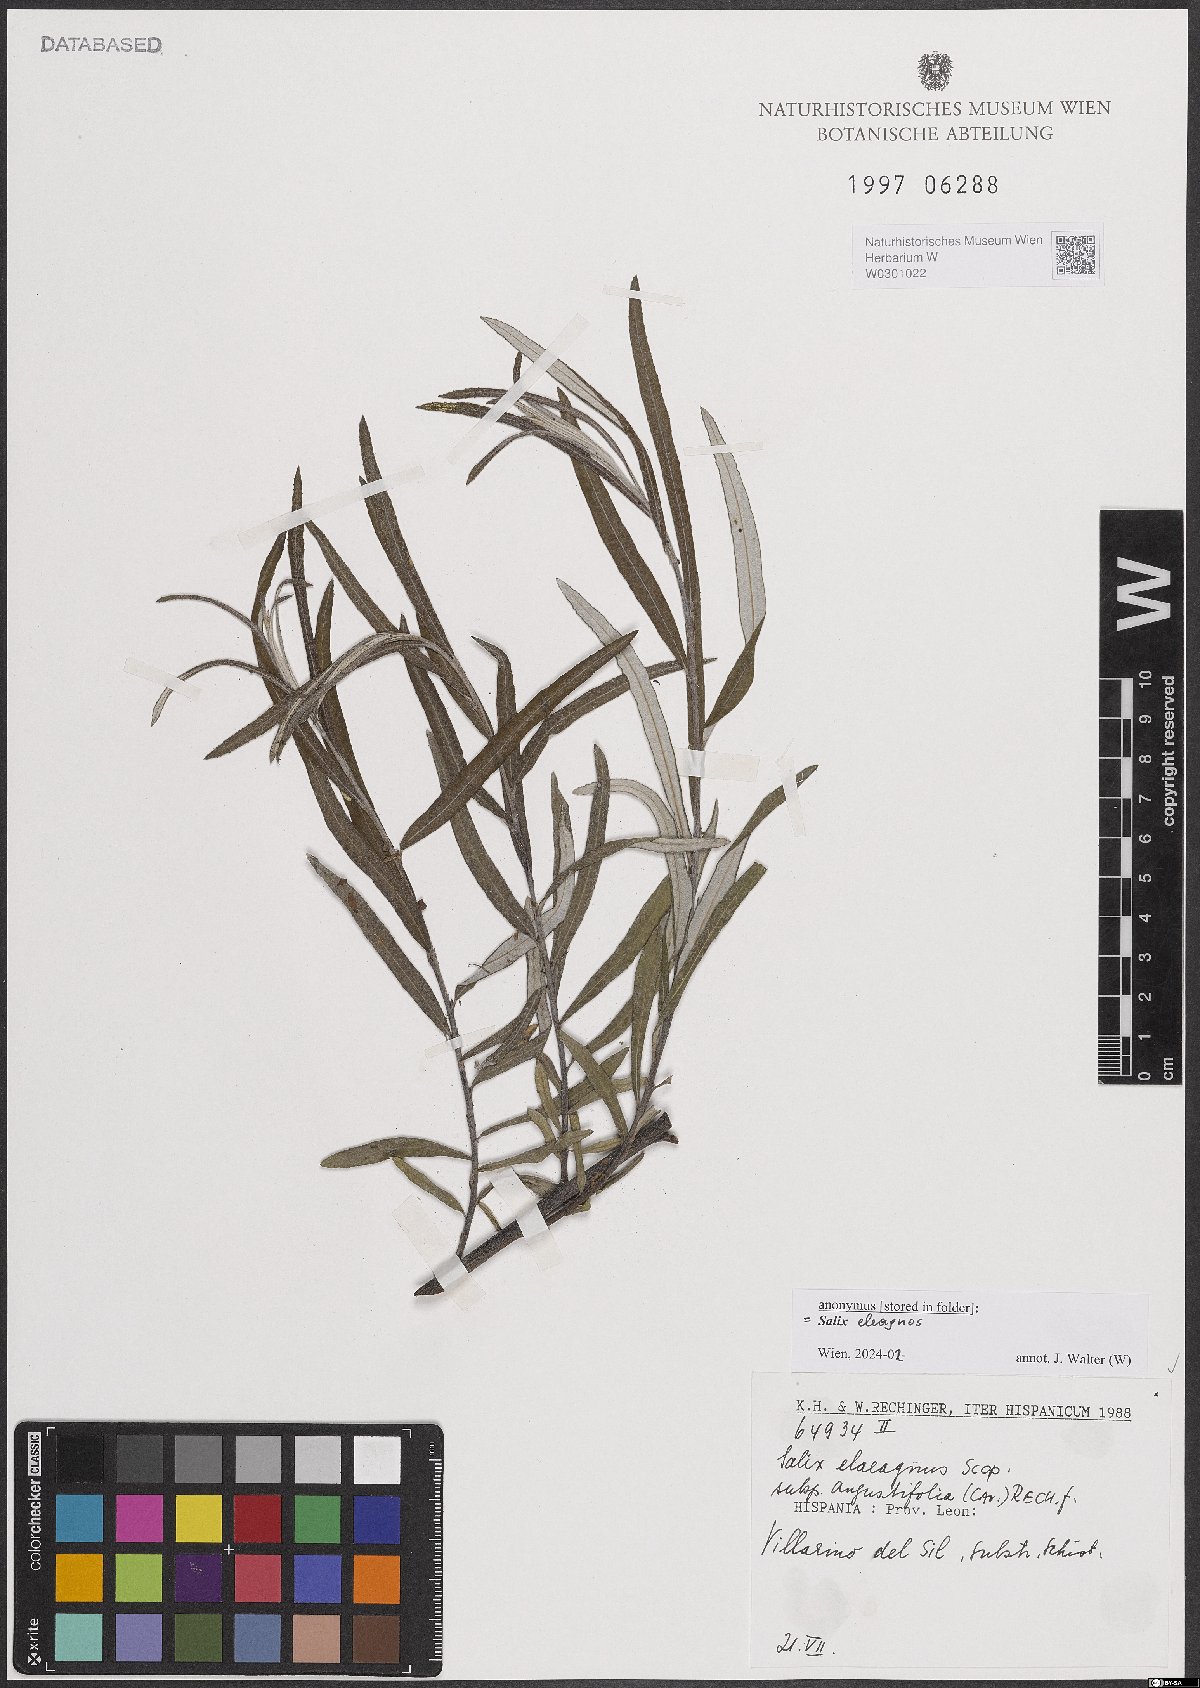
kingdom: Plantae
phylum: Tracheophyta
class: Magnoliopsida
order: Malpighiales
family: Salicaceae
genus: Salix
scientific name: Salix eleagnos
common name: Elaeagnus willow
